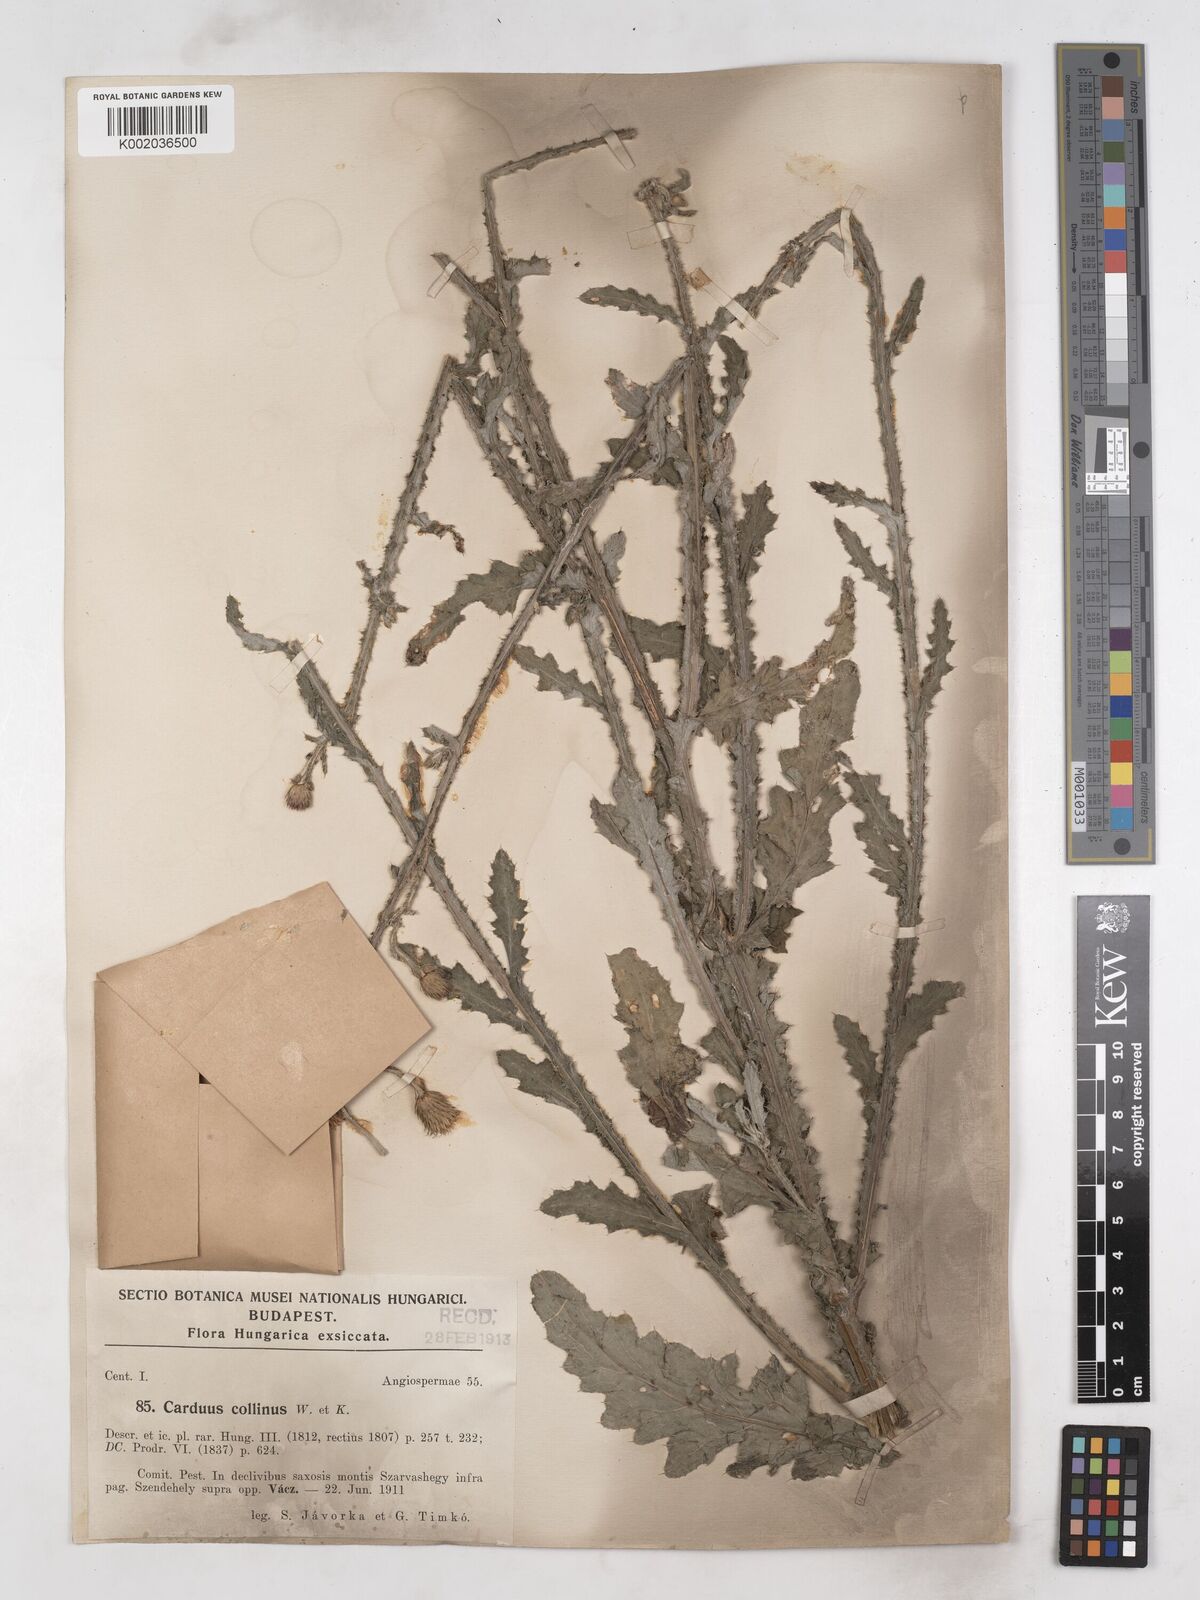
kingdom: Plantae
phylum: Tracheophyta
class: Magnoliopsida
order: Asterales
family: Asteraceae
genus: Carduus
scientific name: Carduus collinus
